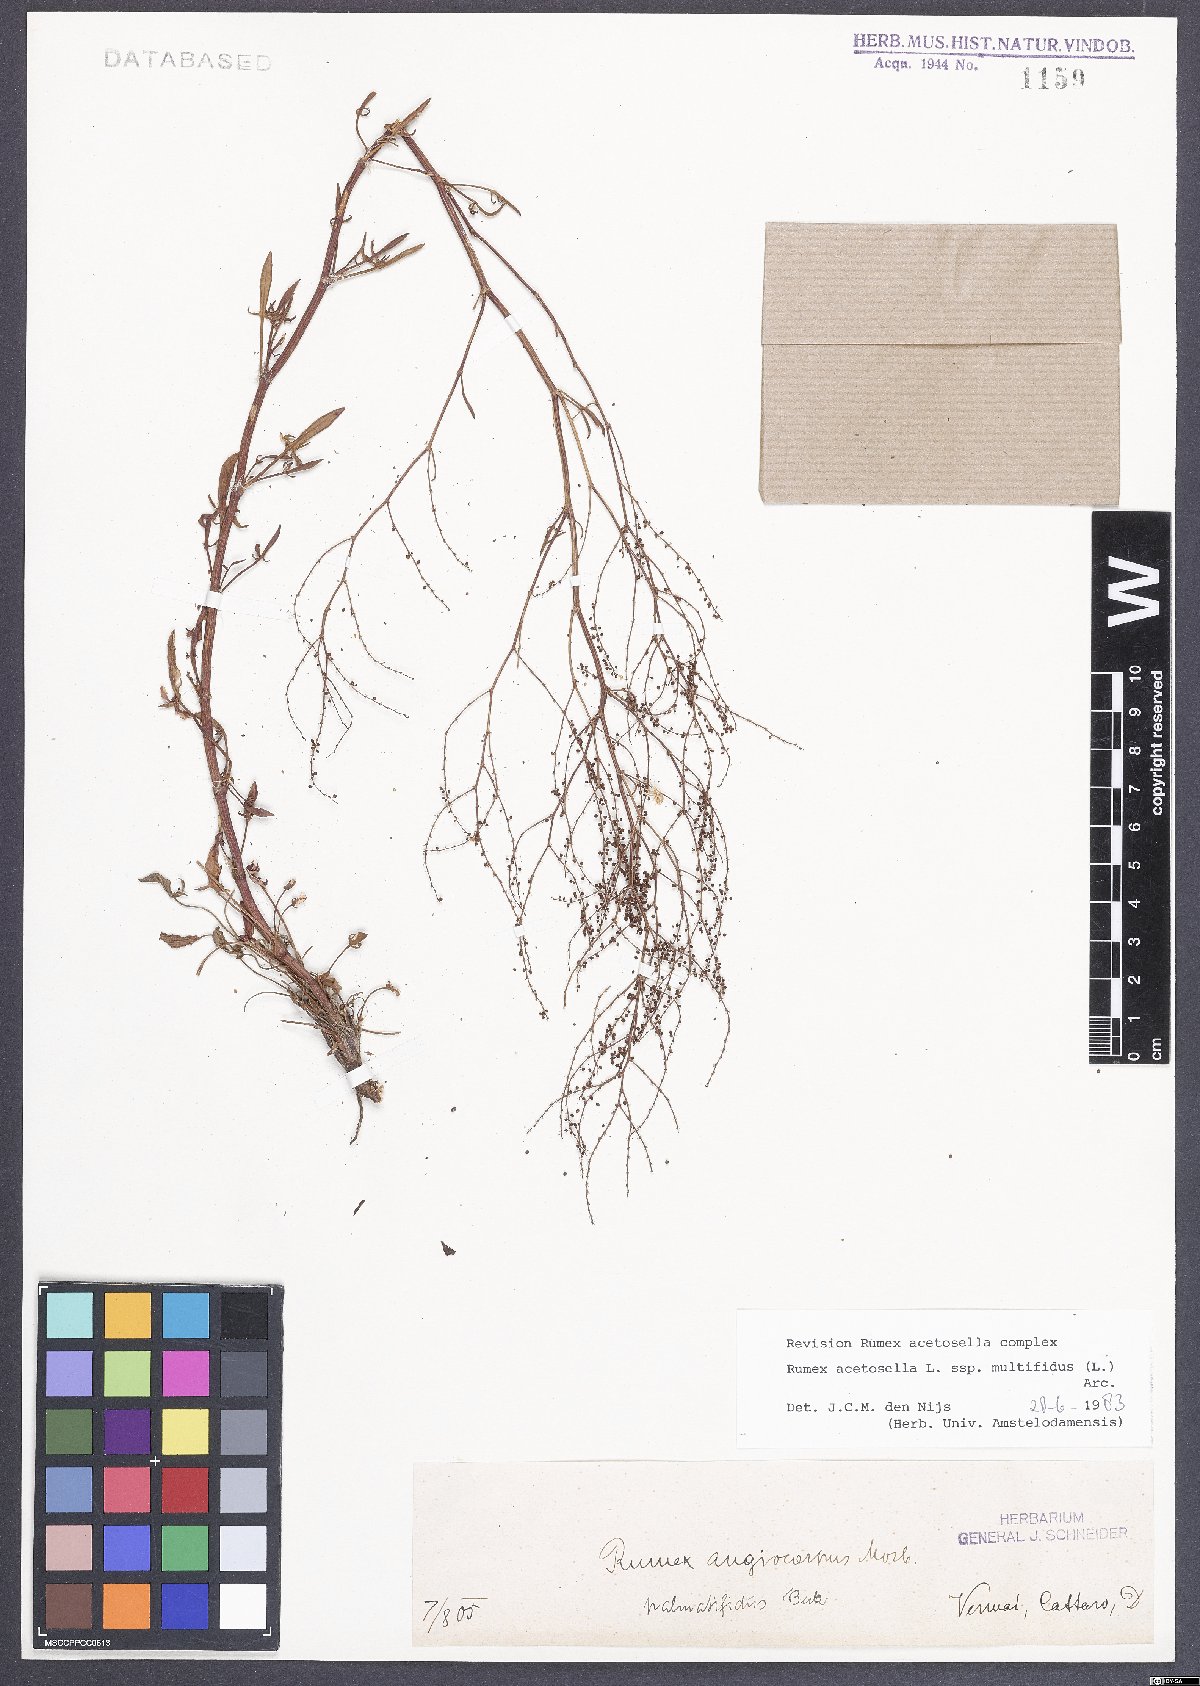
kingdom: Plantae
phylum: Tracheophyta
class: Magnoliopsida
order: Caryophyllales
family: Polygonaceae
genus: Rumex
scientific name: Rumex acetosella
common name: Common sheep sorrel
